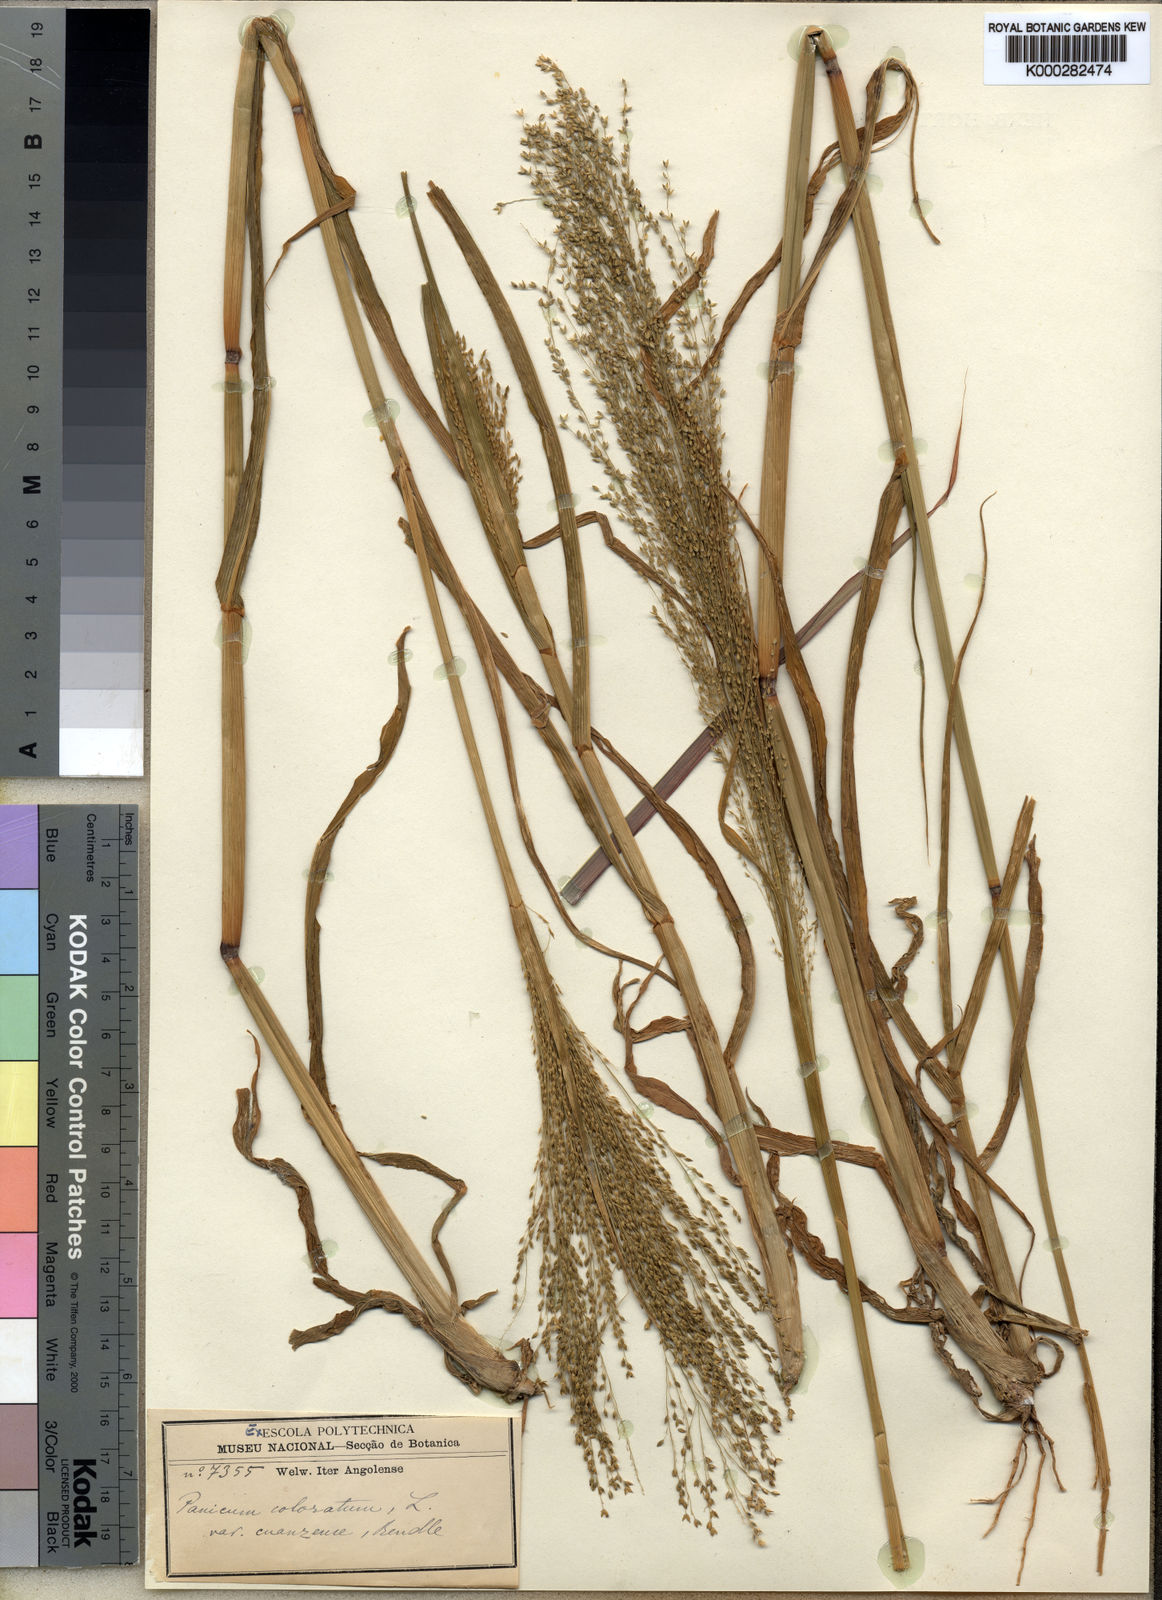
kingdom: Plantae
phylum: Tracheophyta
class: Liliopsida
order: Poales
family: Poaceae
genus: Panicum
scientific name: Panicum
